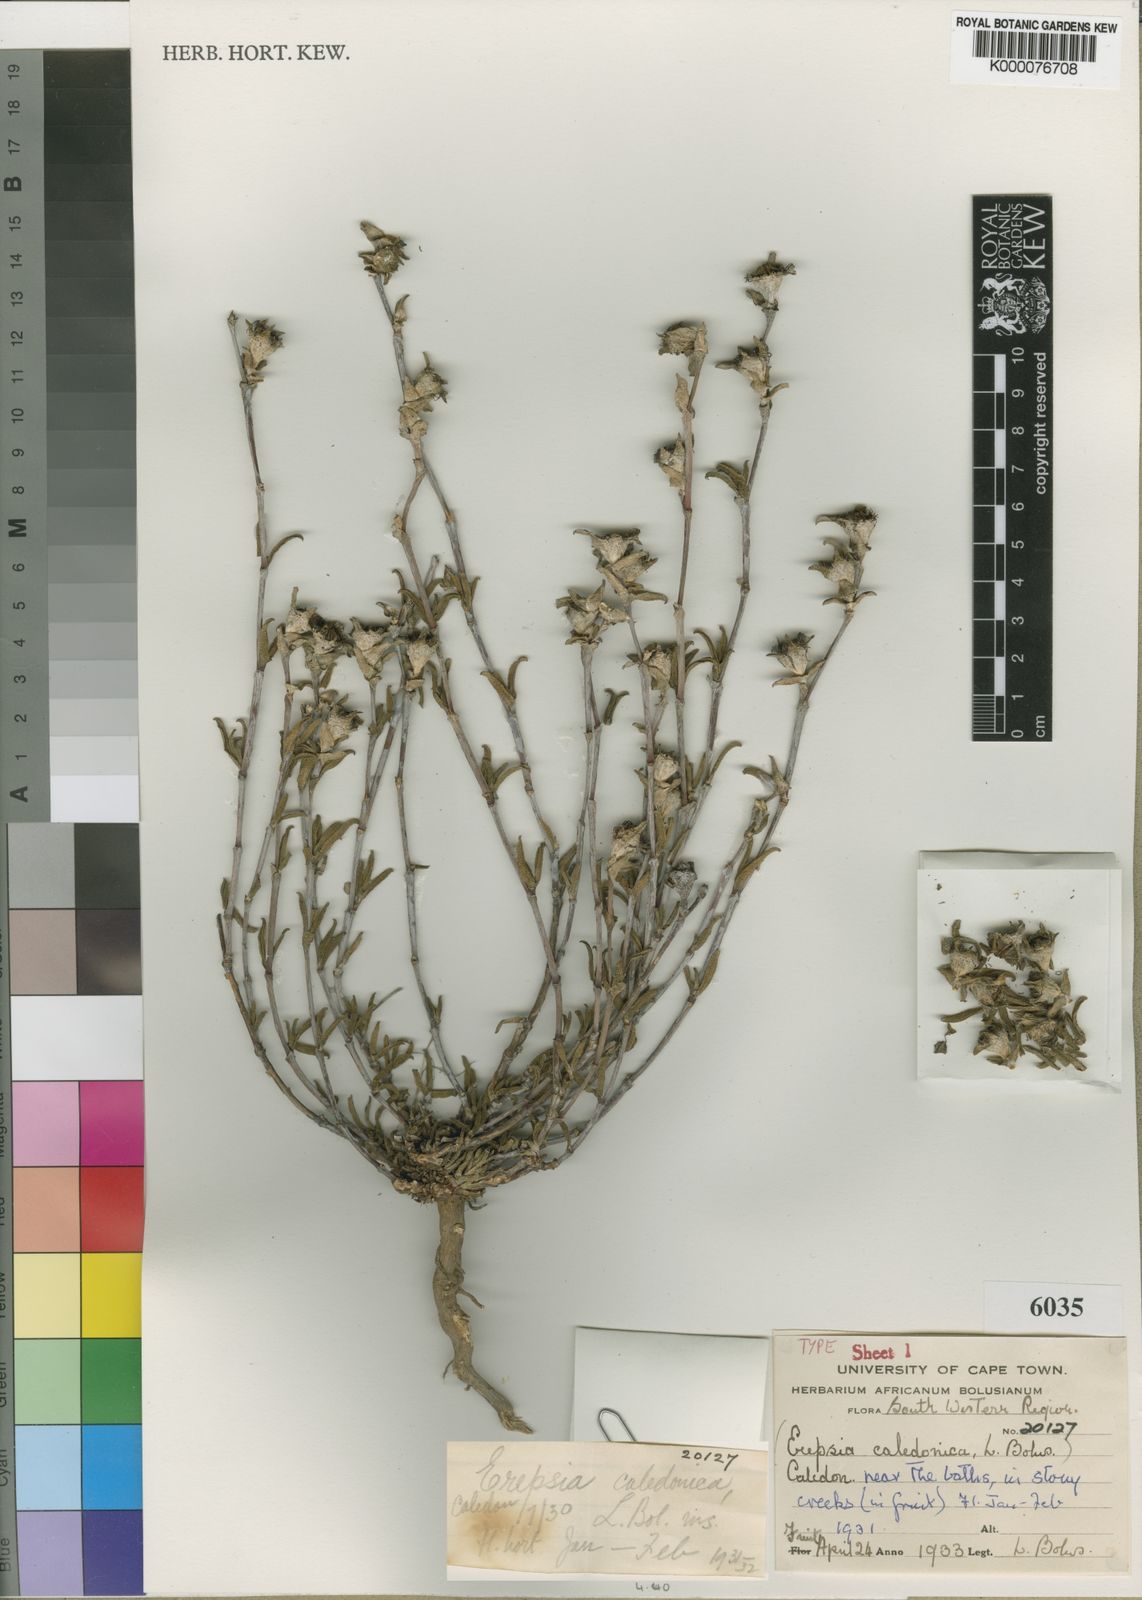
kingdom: Plantae
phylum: Tracheophyta
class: Magnoliopsida
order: Caryophyllales
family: Aizoaceae
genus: Erepsia
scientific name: Erepsia bracteata
